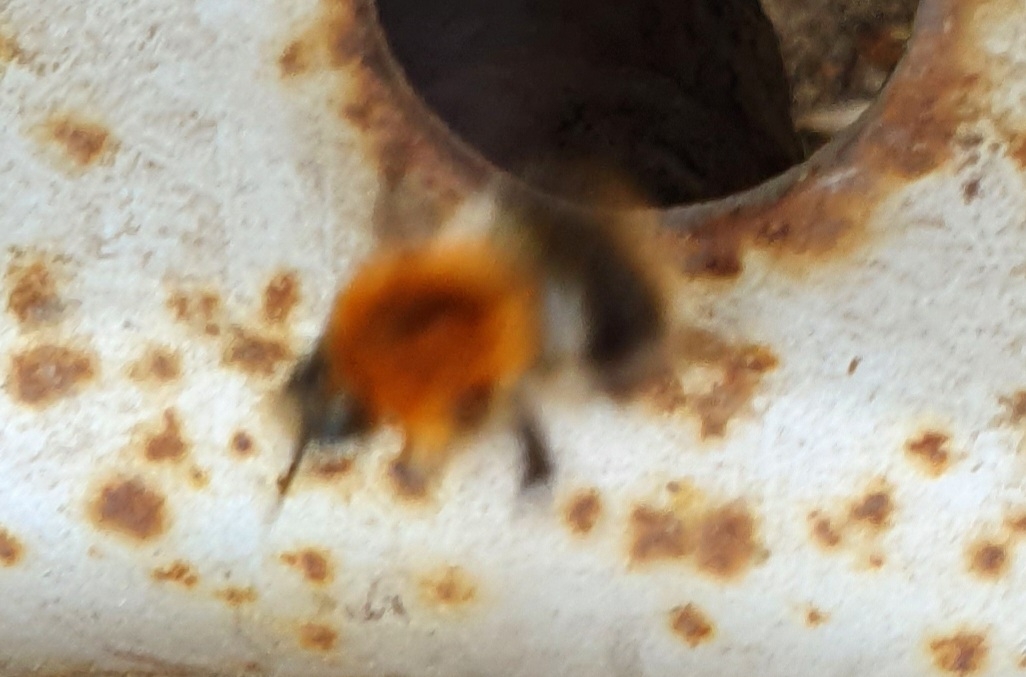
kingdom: Animalia
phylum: Arthropoda
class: Insecta
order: Hymenoptera
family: Apidae
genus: Bombus
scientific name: Bombus hypnorum
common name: Hushumle
